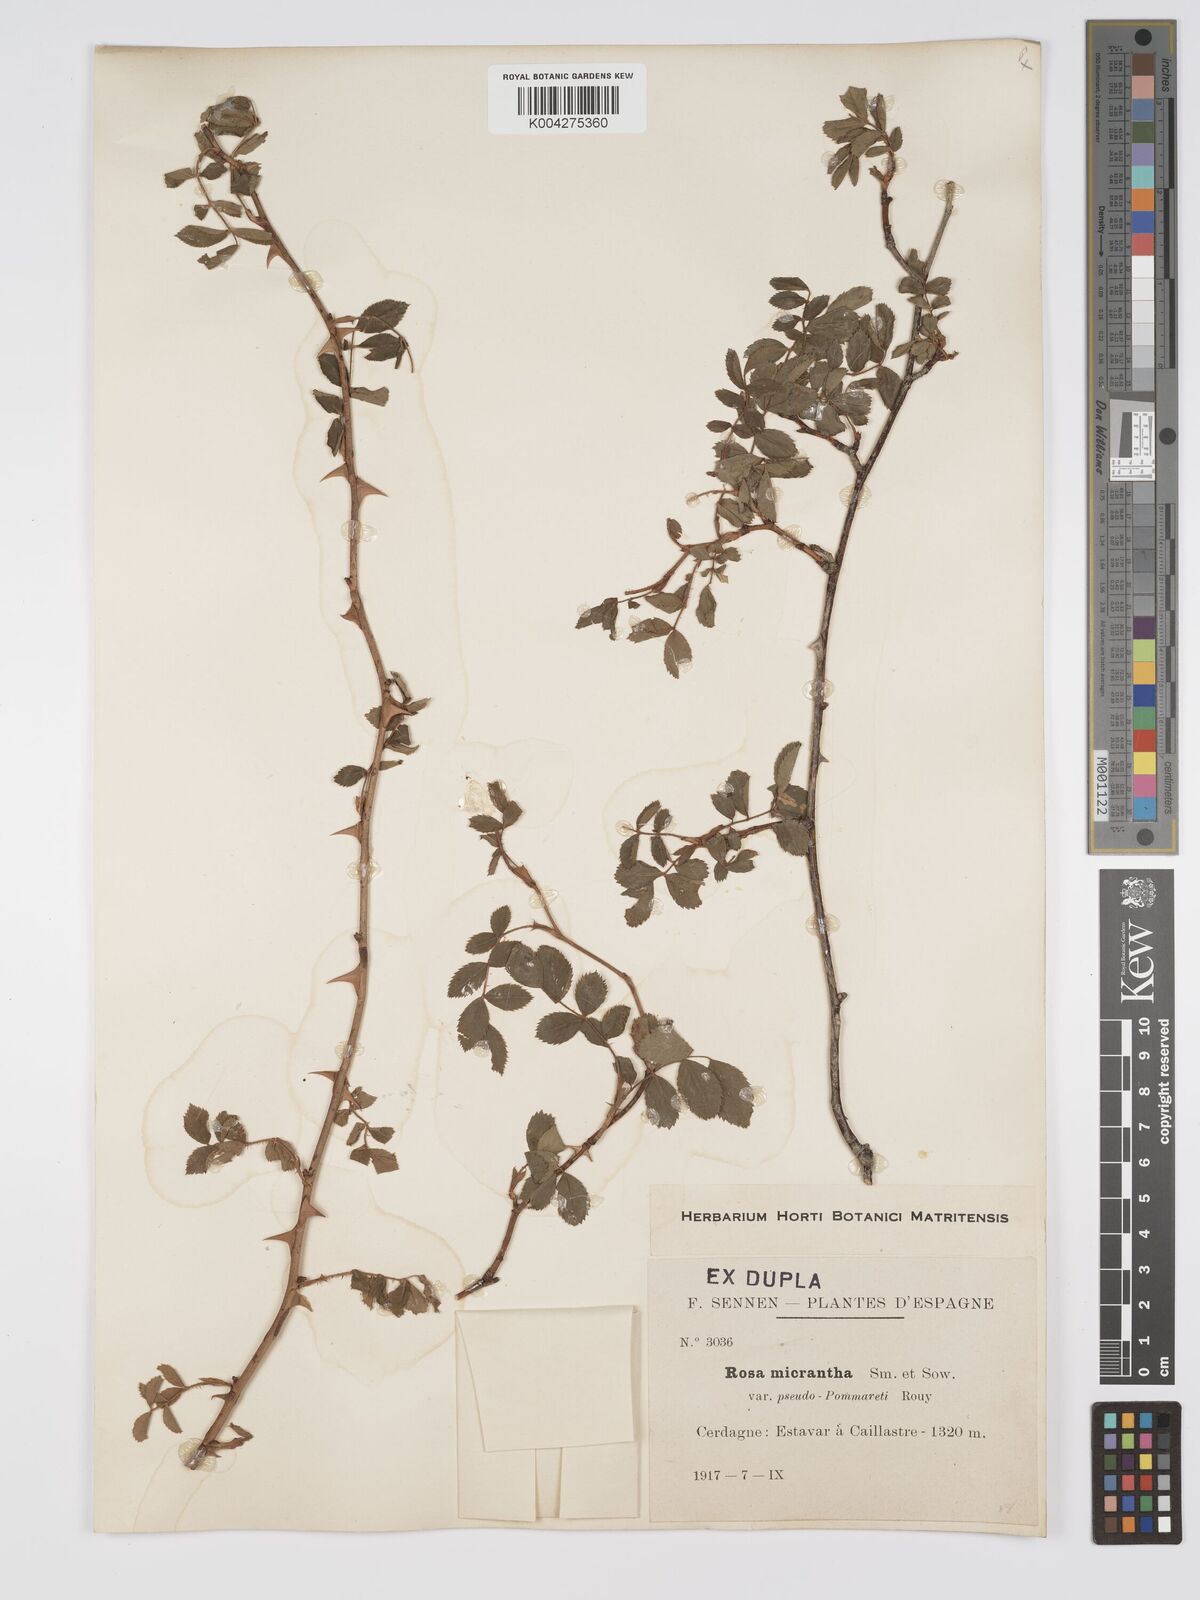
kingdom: Plantae
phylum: Tracheophyta
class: Magnoliopsida
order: Rosales
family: Rosaceae
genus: Rosa
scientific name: Rosa
